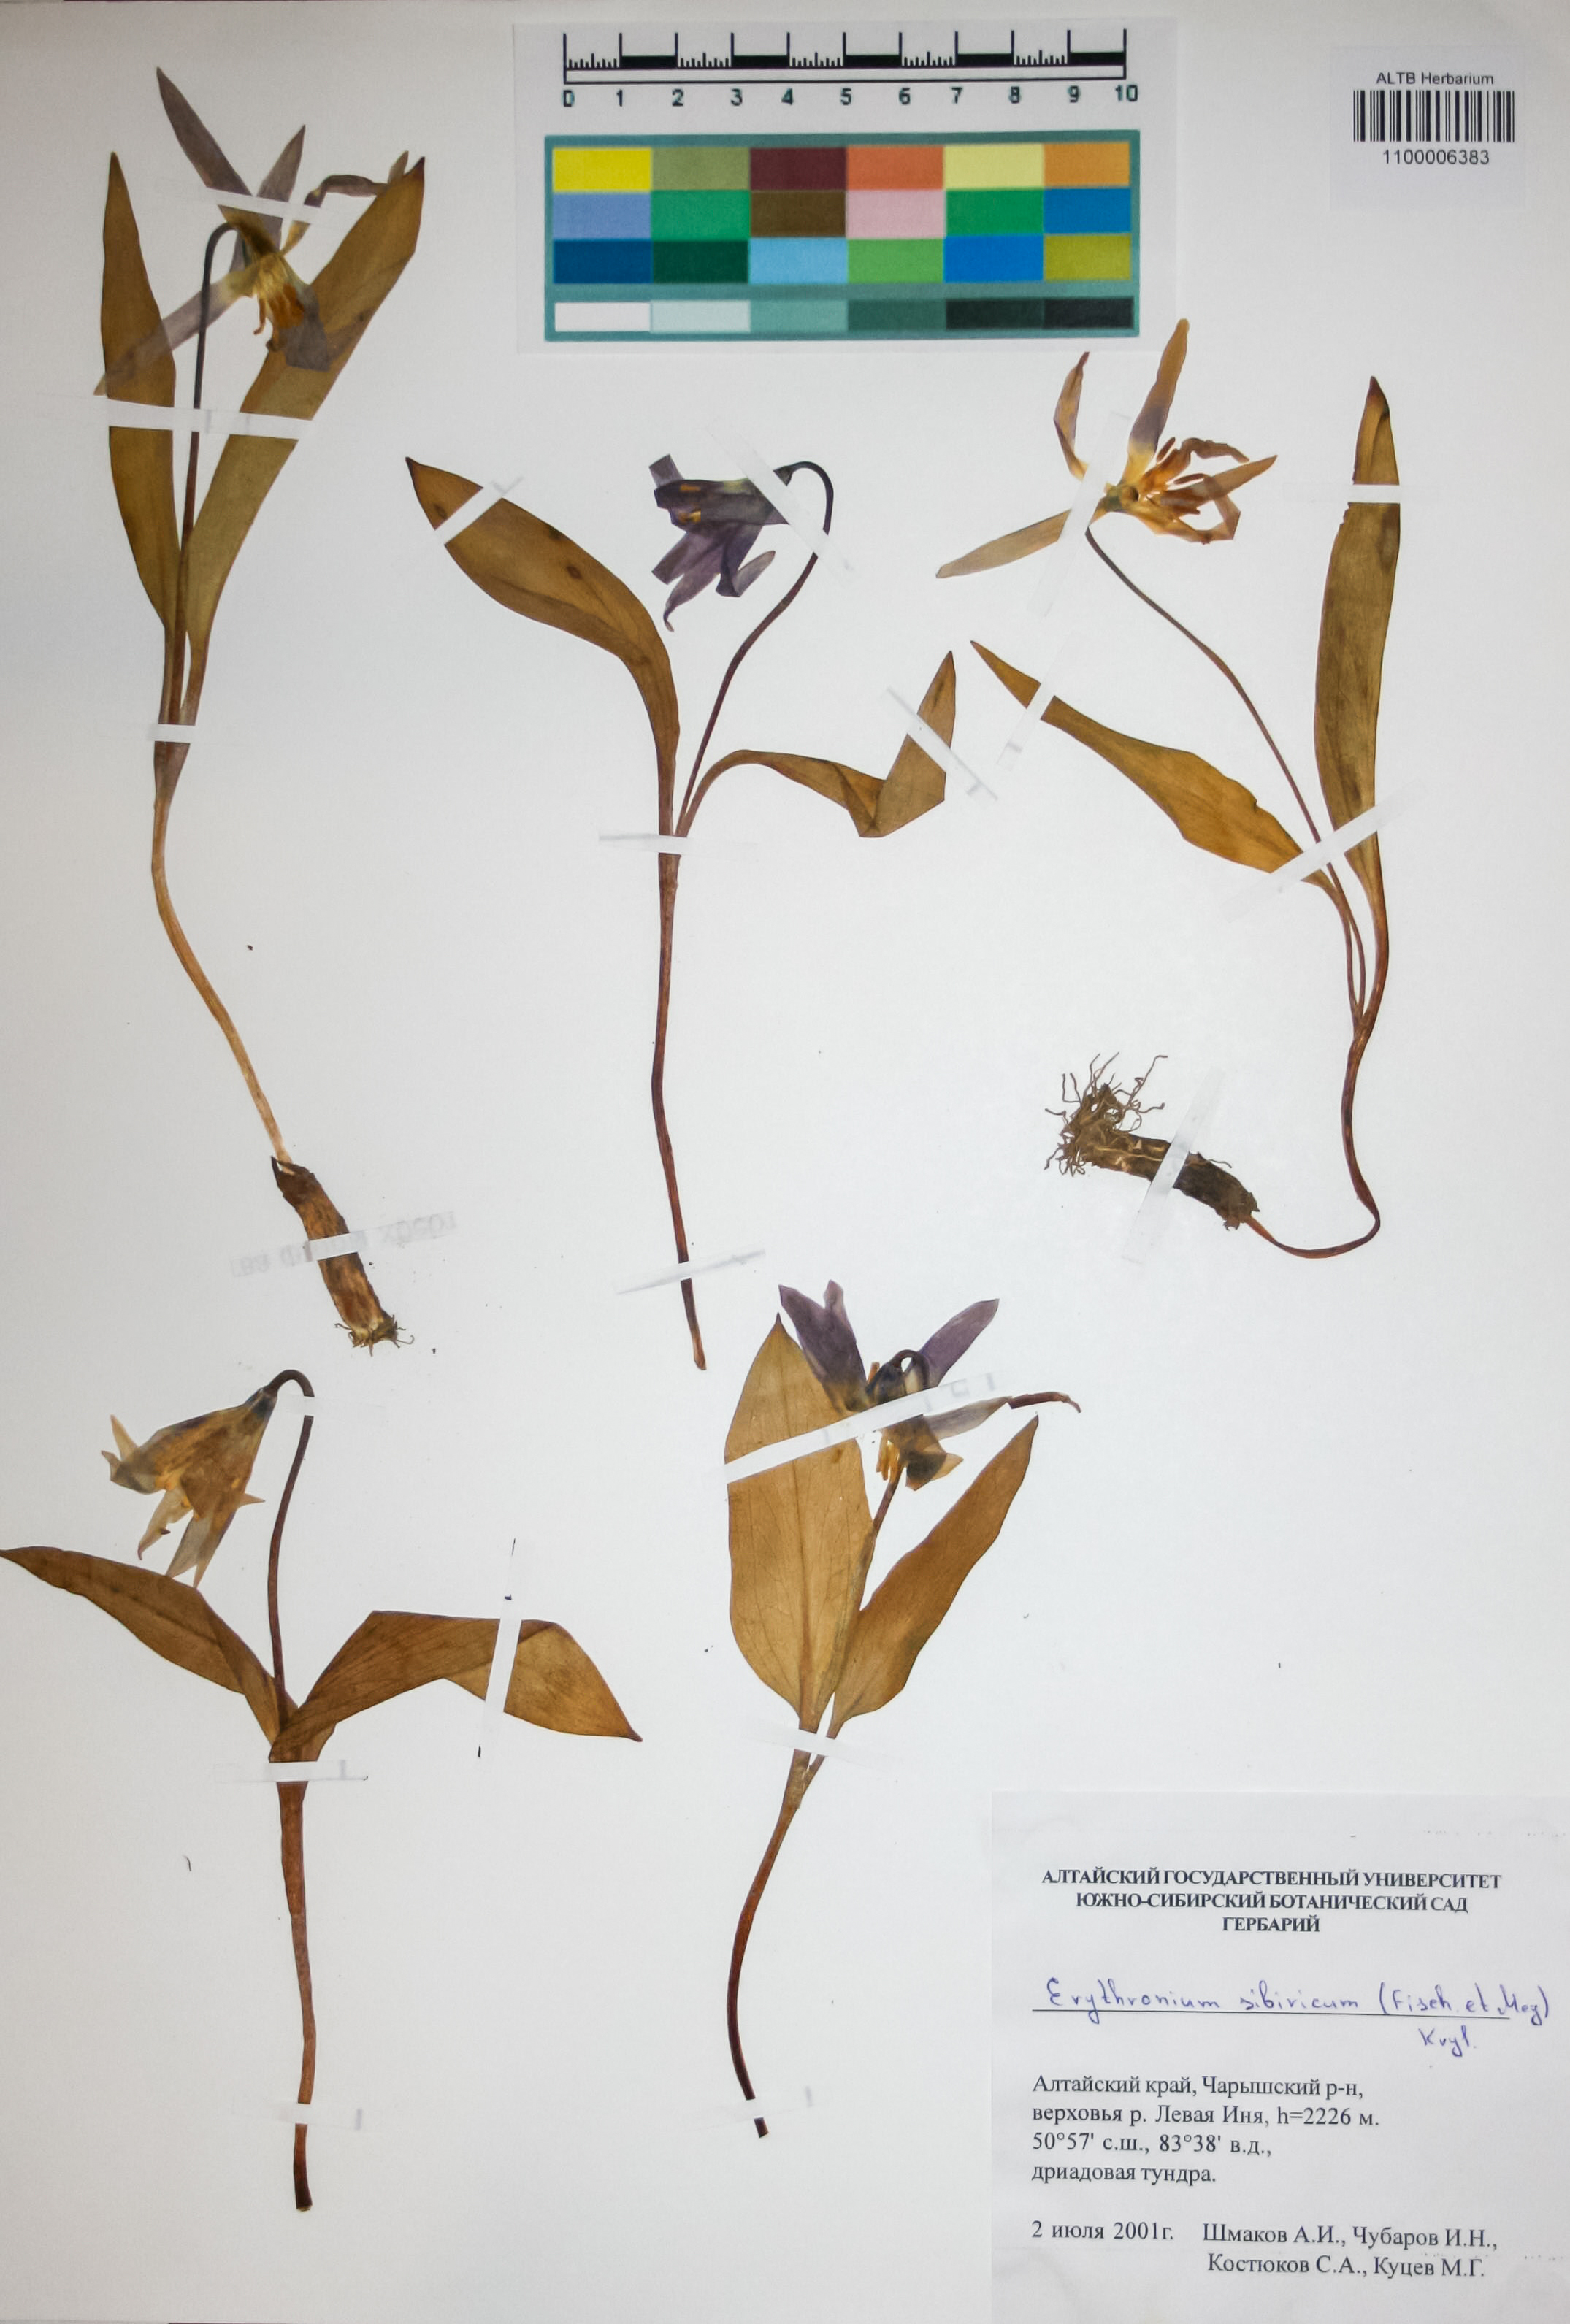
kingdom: Plantae
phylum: Tracheophyta
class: Liliopsida
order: Liliales
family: Liliaceae
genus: Erythronium
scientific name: Erythronium sibiricum
